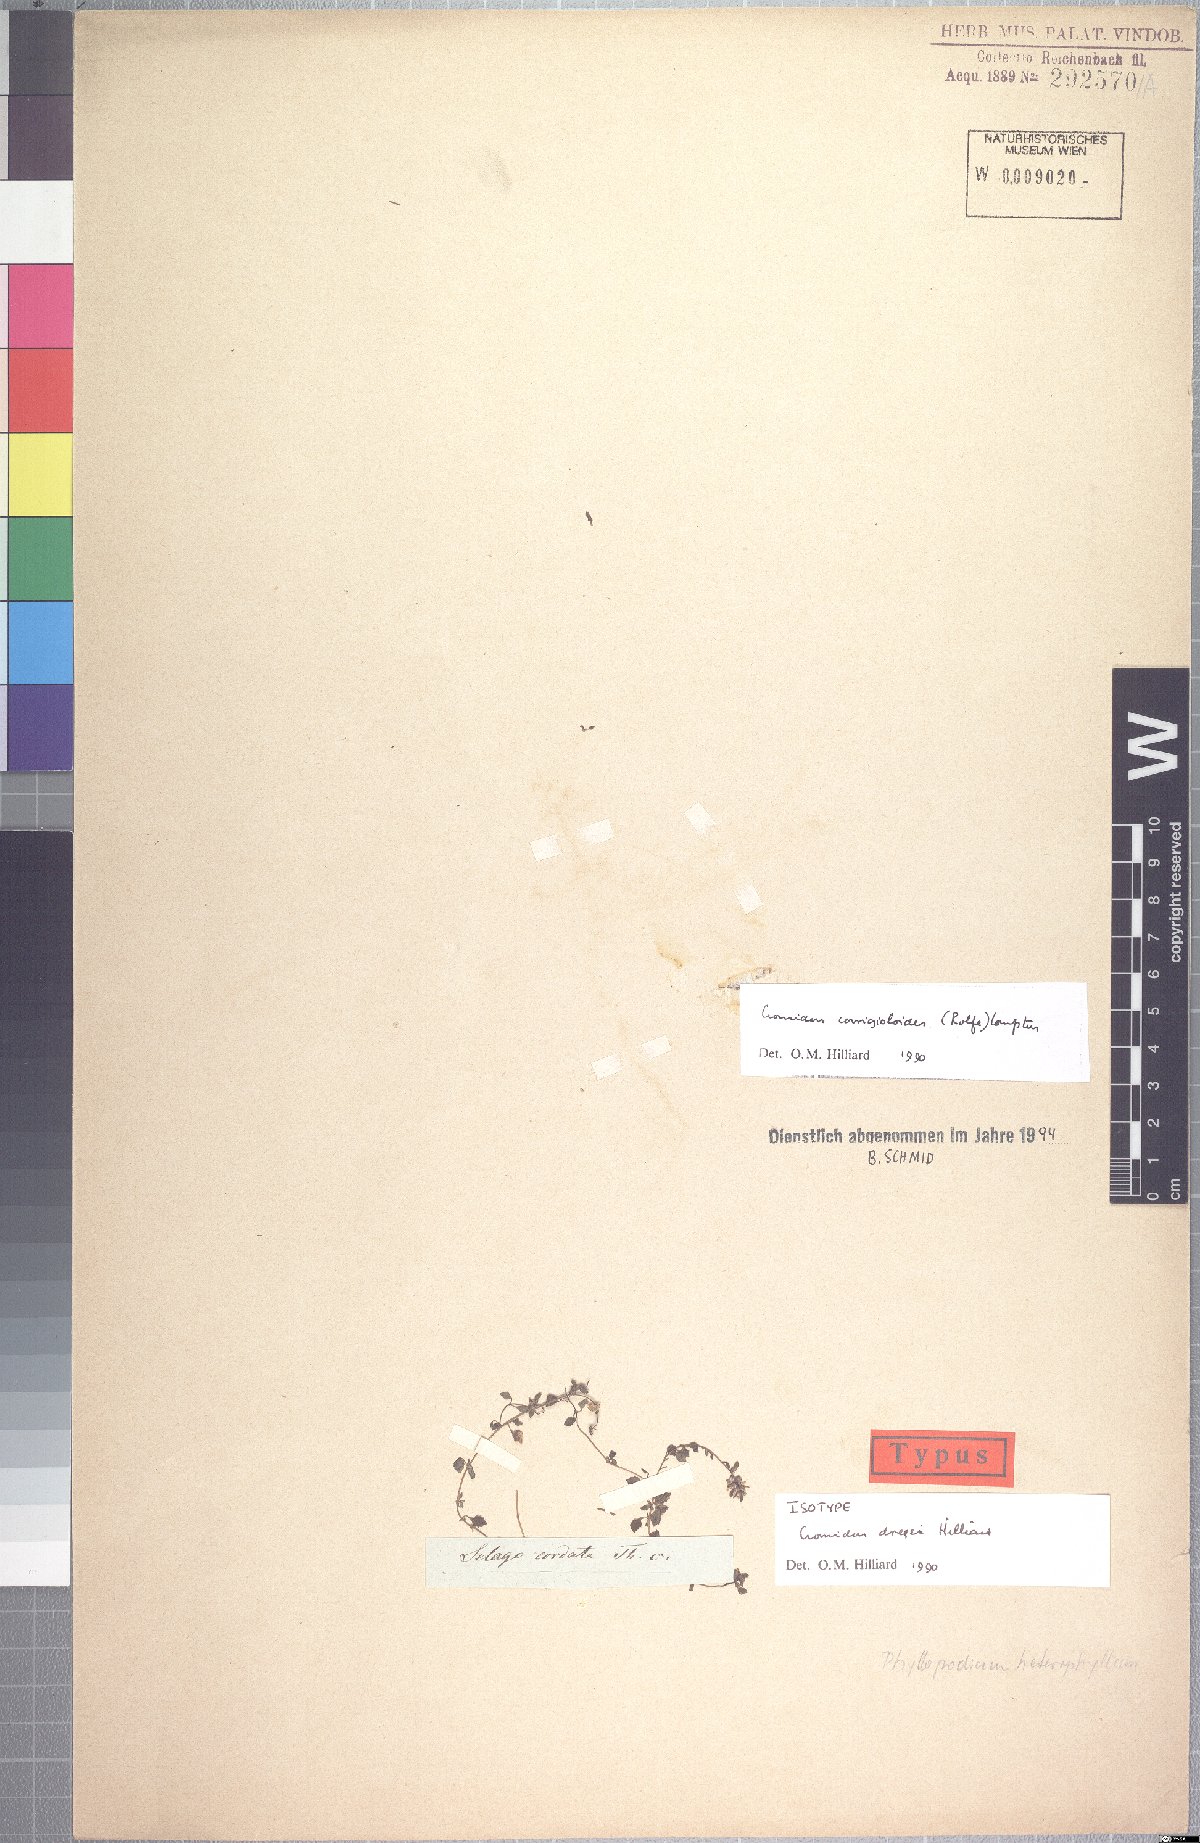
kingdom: Plantae
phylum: Tracheophyta
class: Magnoliopsida
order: Lamiales
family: Scrophulariaceae
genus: Cromidon
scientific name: Cromidon dregei
